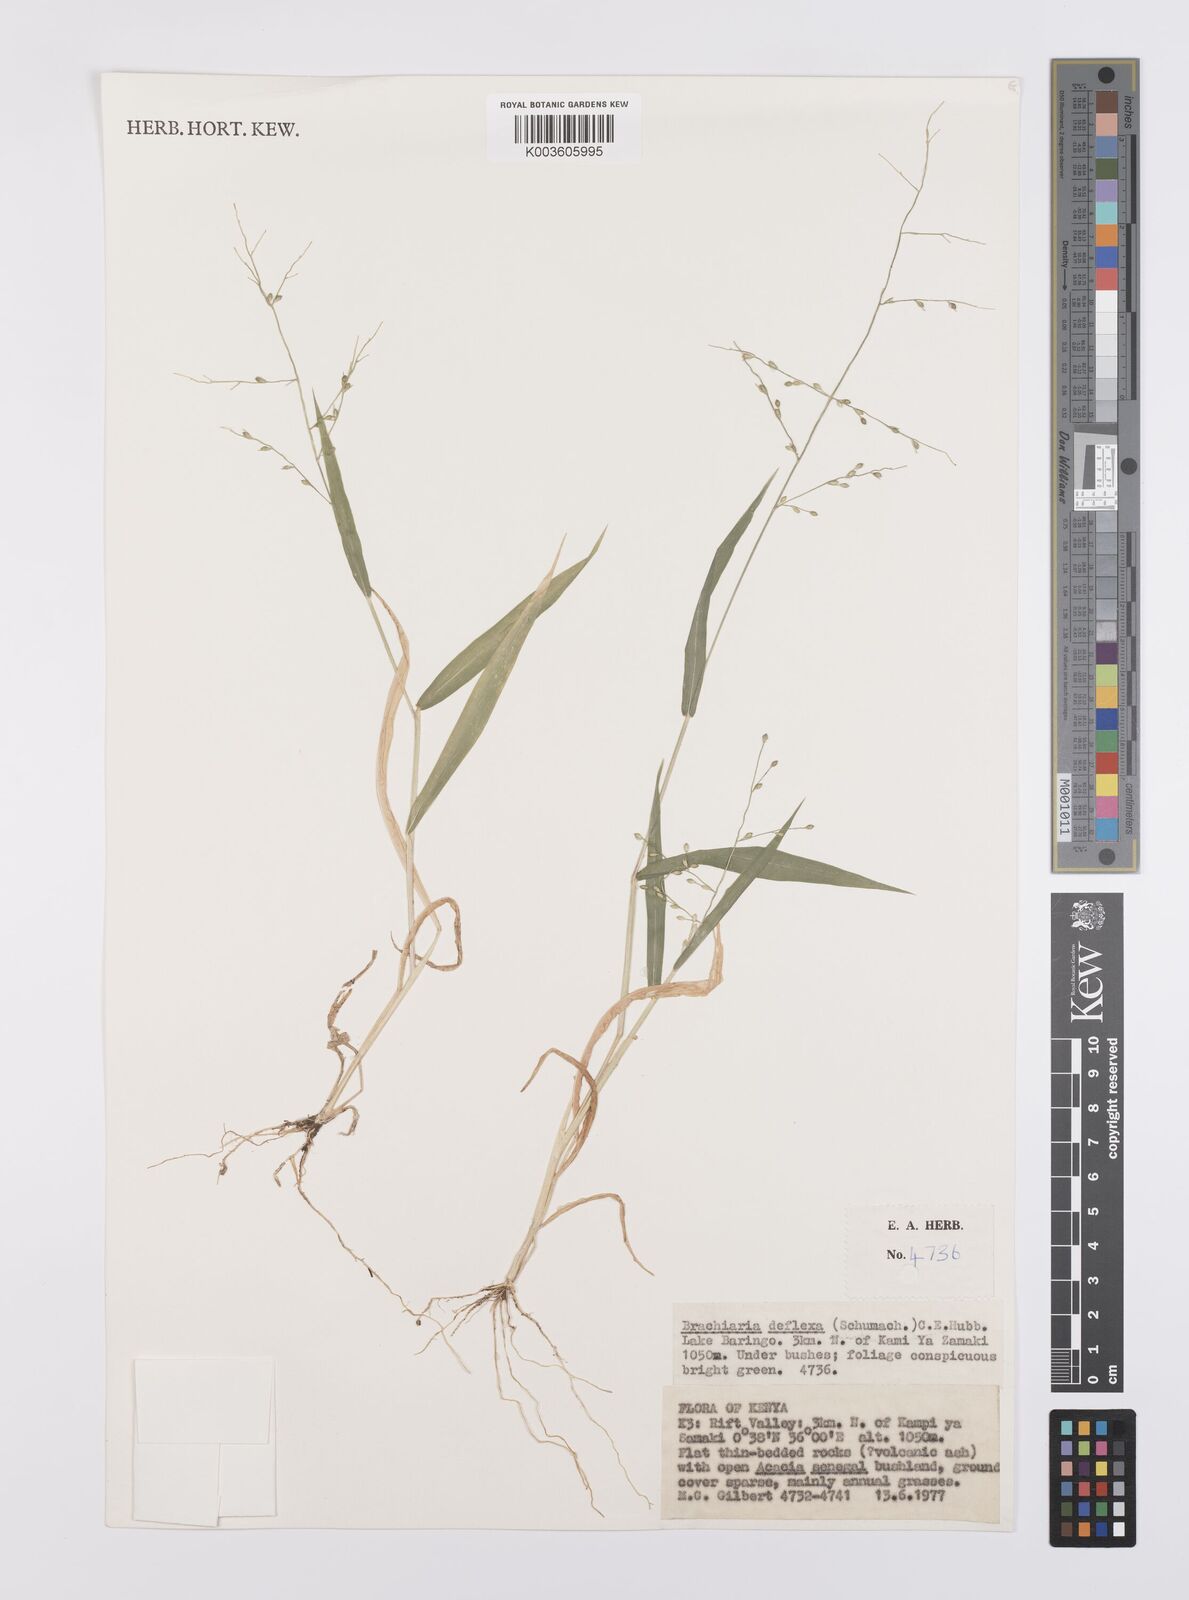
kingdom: Plantae
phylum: Tracheophyta
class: Liliopsida
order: Poales
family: Poaceae
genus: Urochloa
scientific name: Urochloa deflexa
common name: Guinea millet
